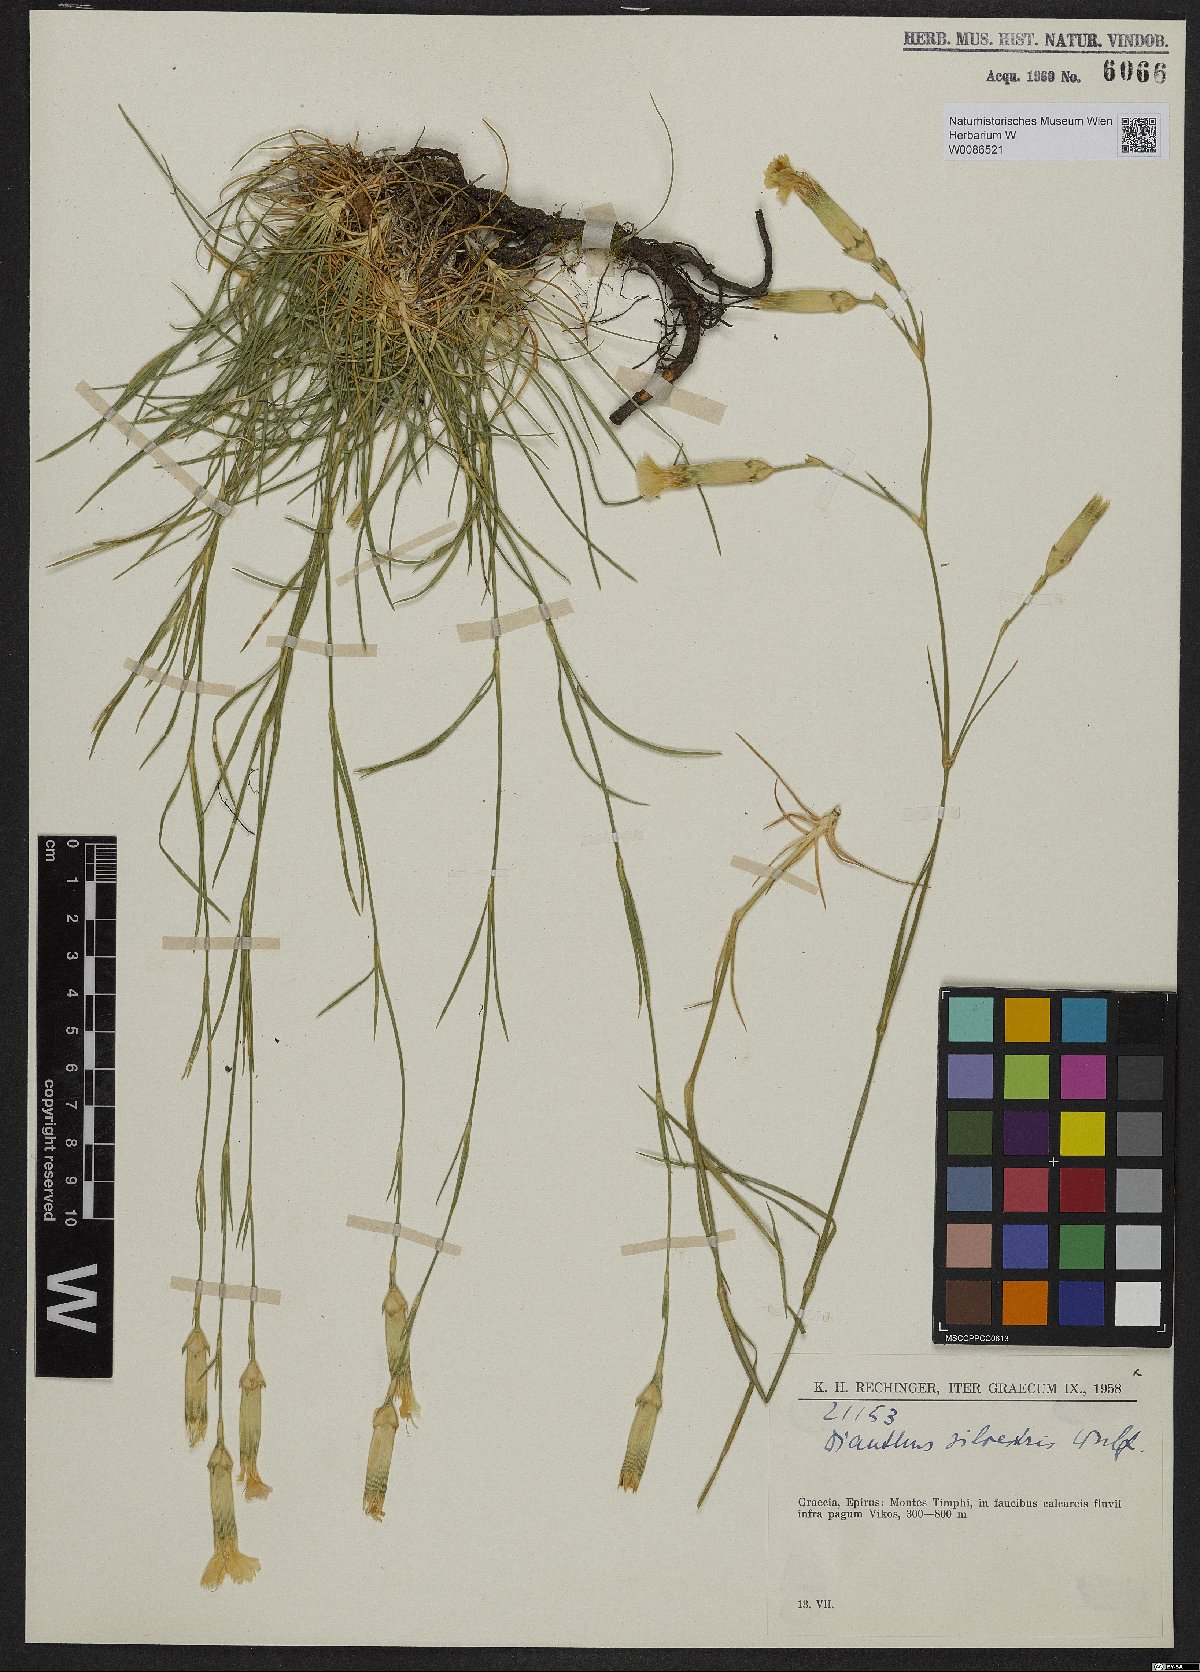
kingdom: Plantae
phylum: Tracheophyta
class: Magnoliopsida
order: Caryophyllales
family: Caryophyllaceae
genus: Dianthus
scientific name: Dianthus sylvestris
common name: Wood pink
